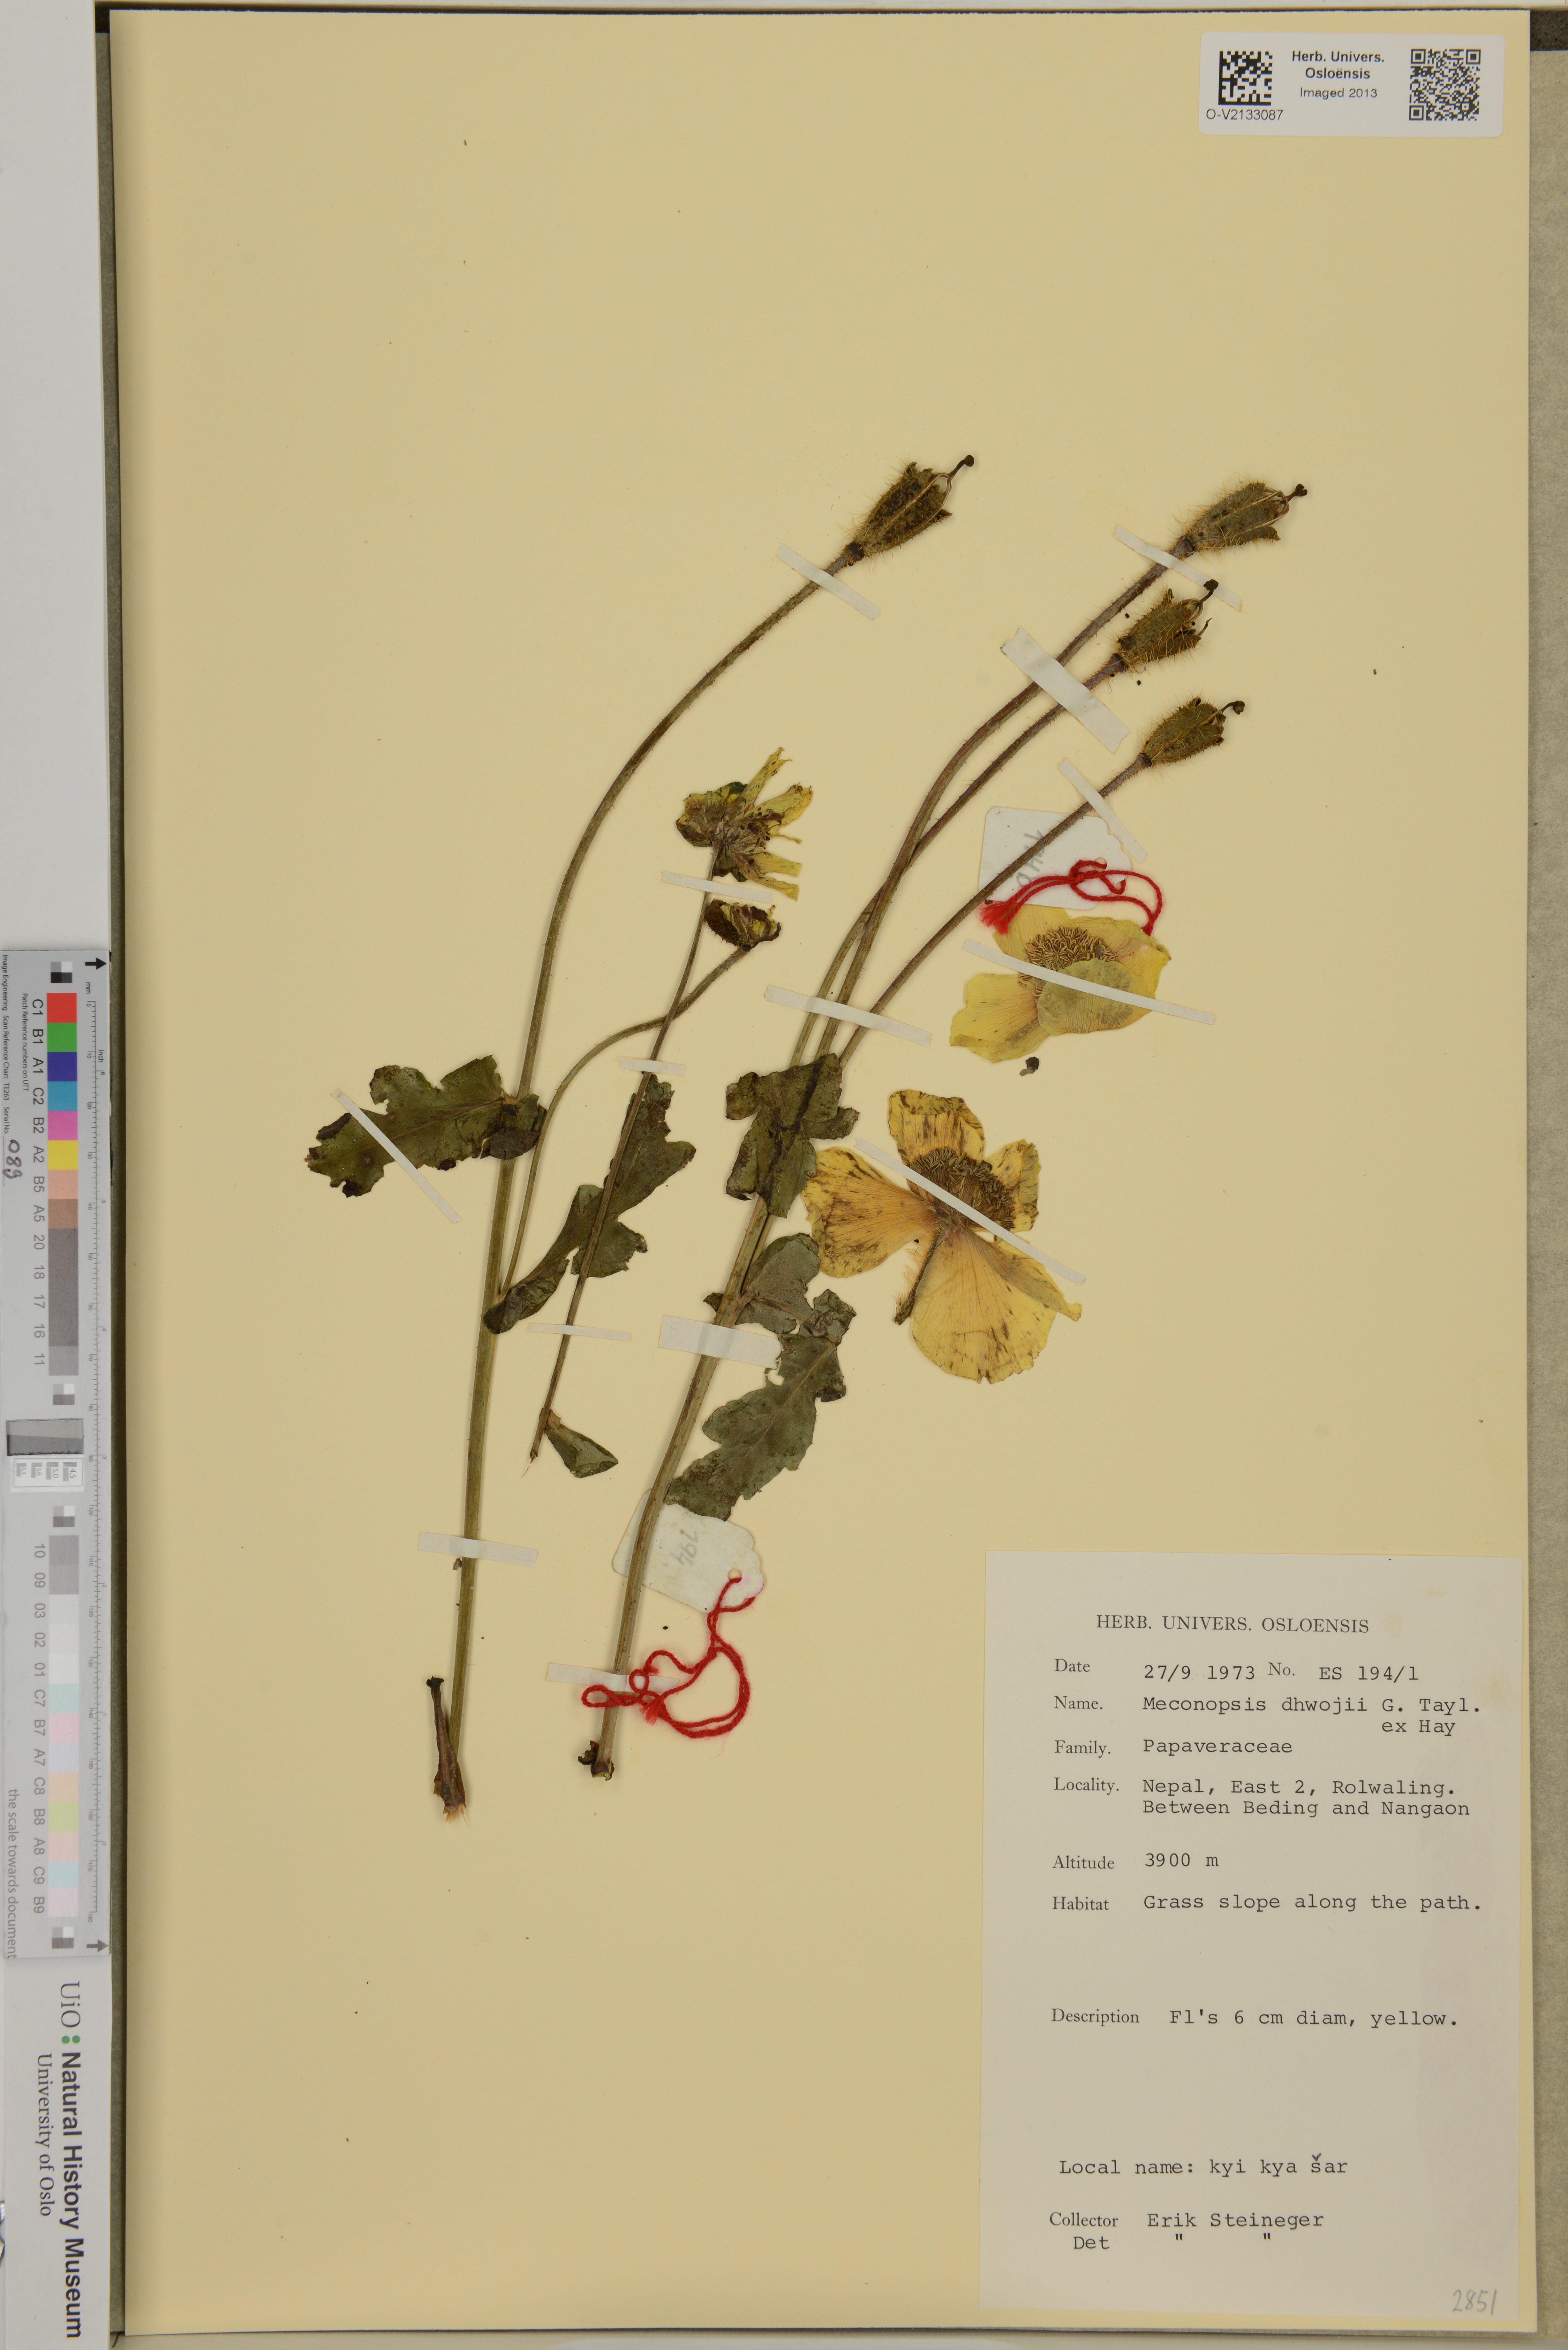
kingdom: Plantae
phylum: Tracheophyta
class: Magnoliopsida
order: Ranunculales
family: Papaveraceae
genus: Meconopsis
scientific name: Meconopsis dhwojii
